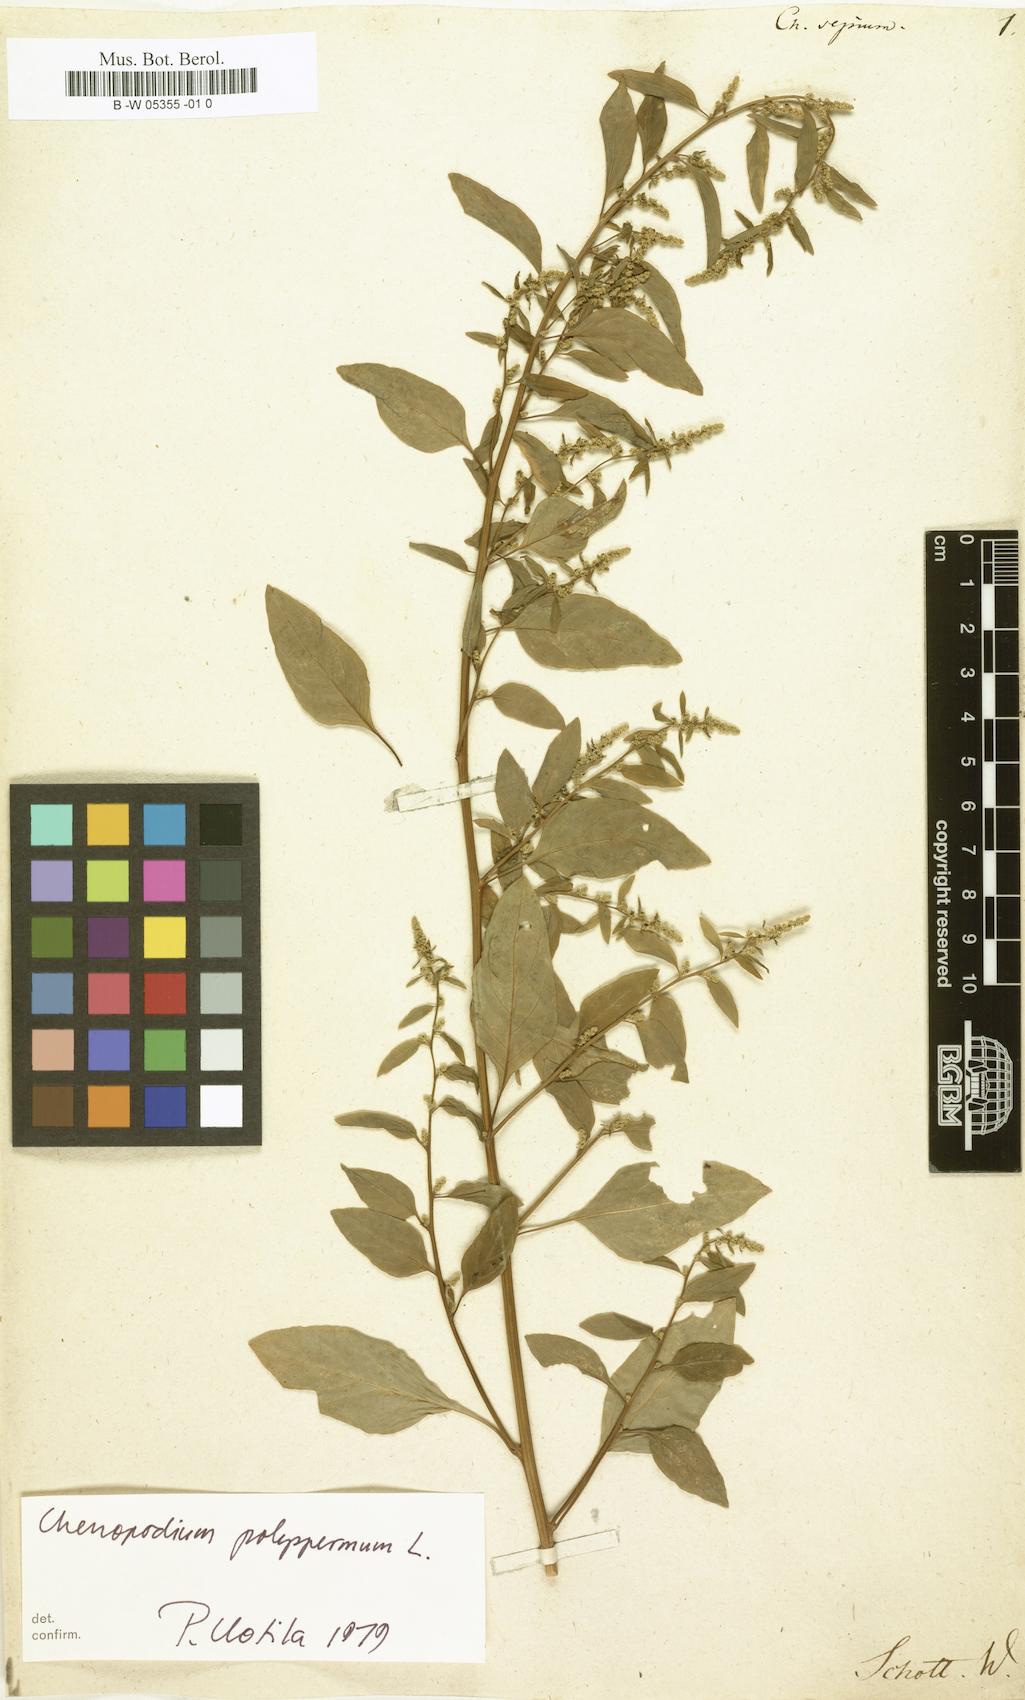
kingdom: Plantae
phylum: Tracheophyta
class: Magnoliopsida
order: Caryophyllales
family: Amaranthaceae
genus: Chenopodium
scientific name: Chenopodium sepium
